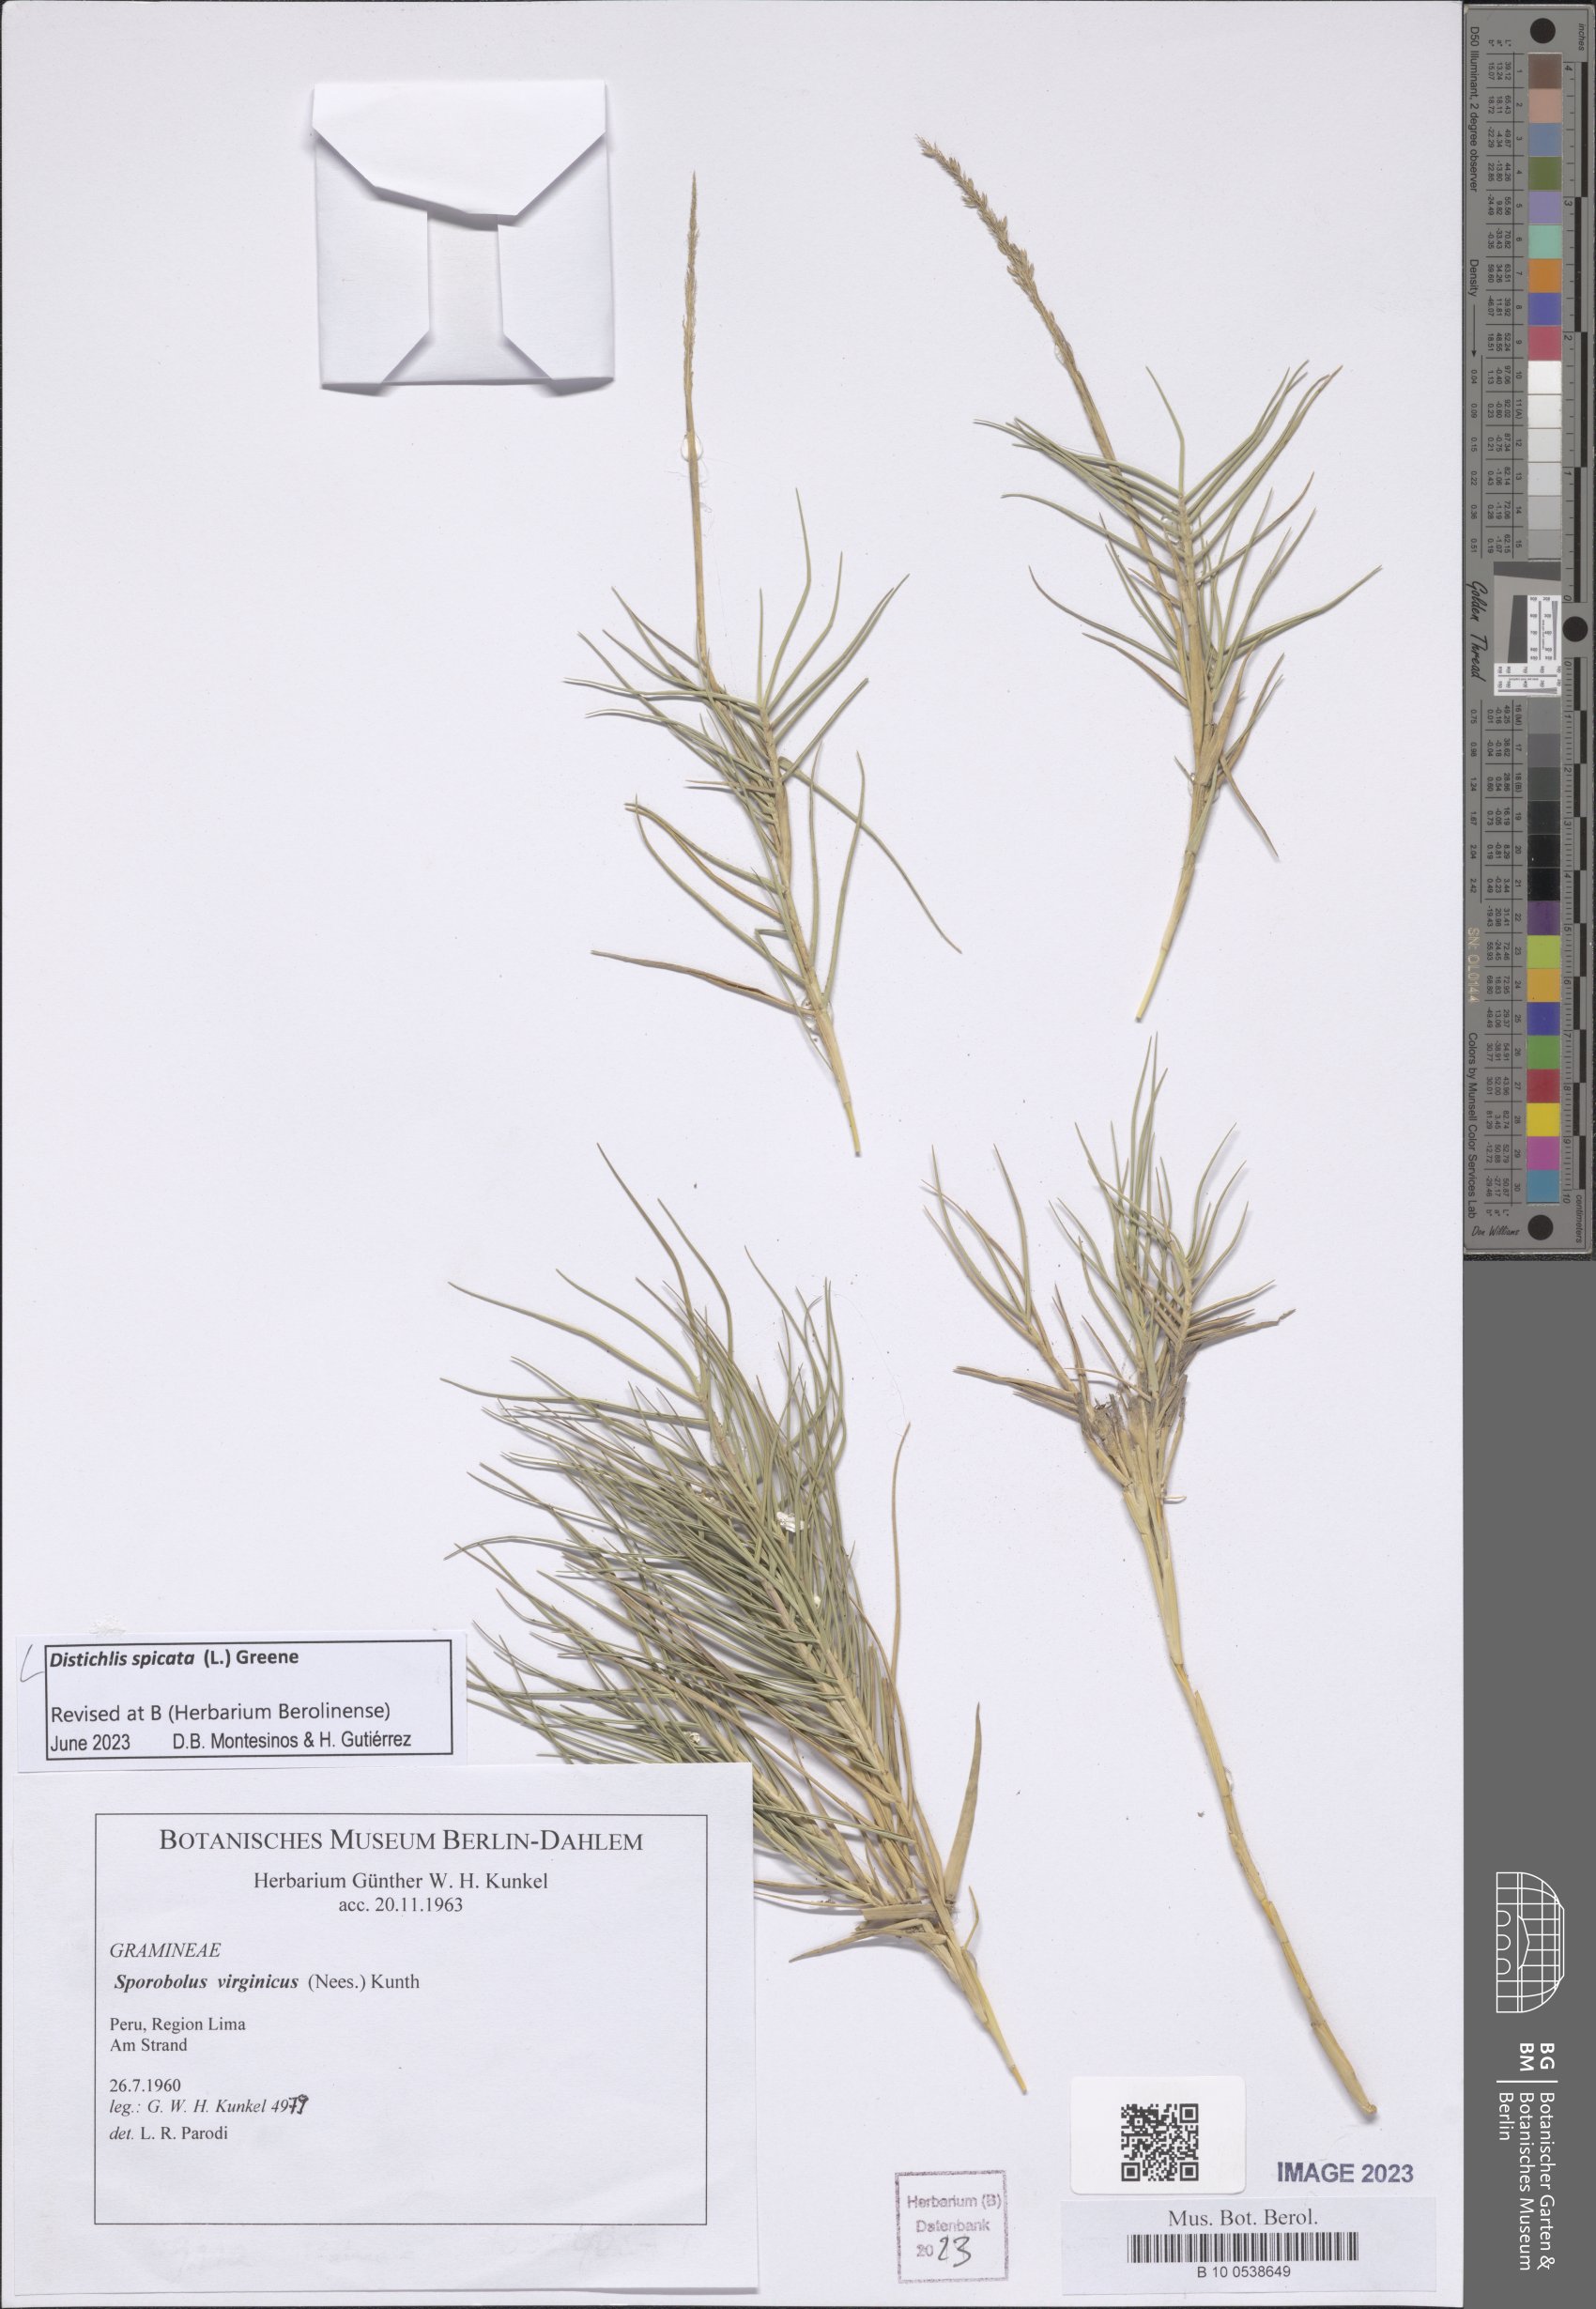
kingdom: Plantae
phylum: Tracheophyta
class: Liliopsida
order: Poales
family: Poaceae
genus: Distichlis
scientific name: Distichlis spicata
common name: Saltgrass
